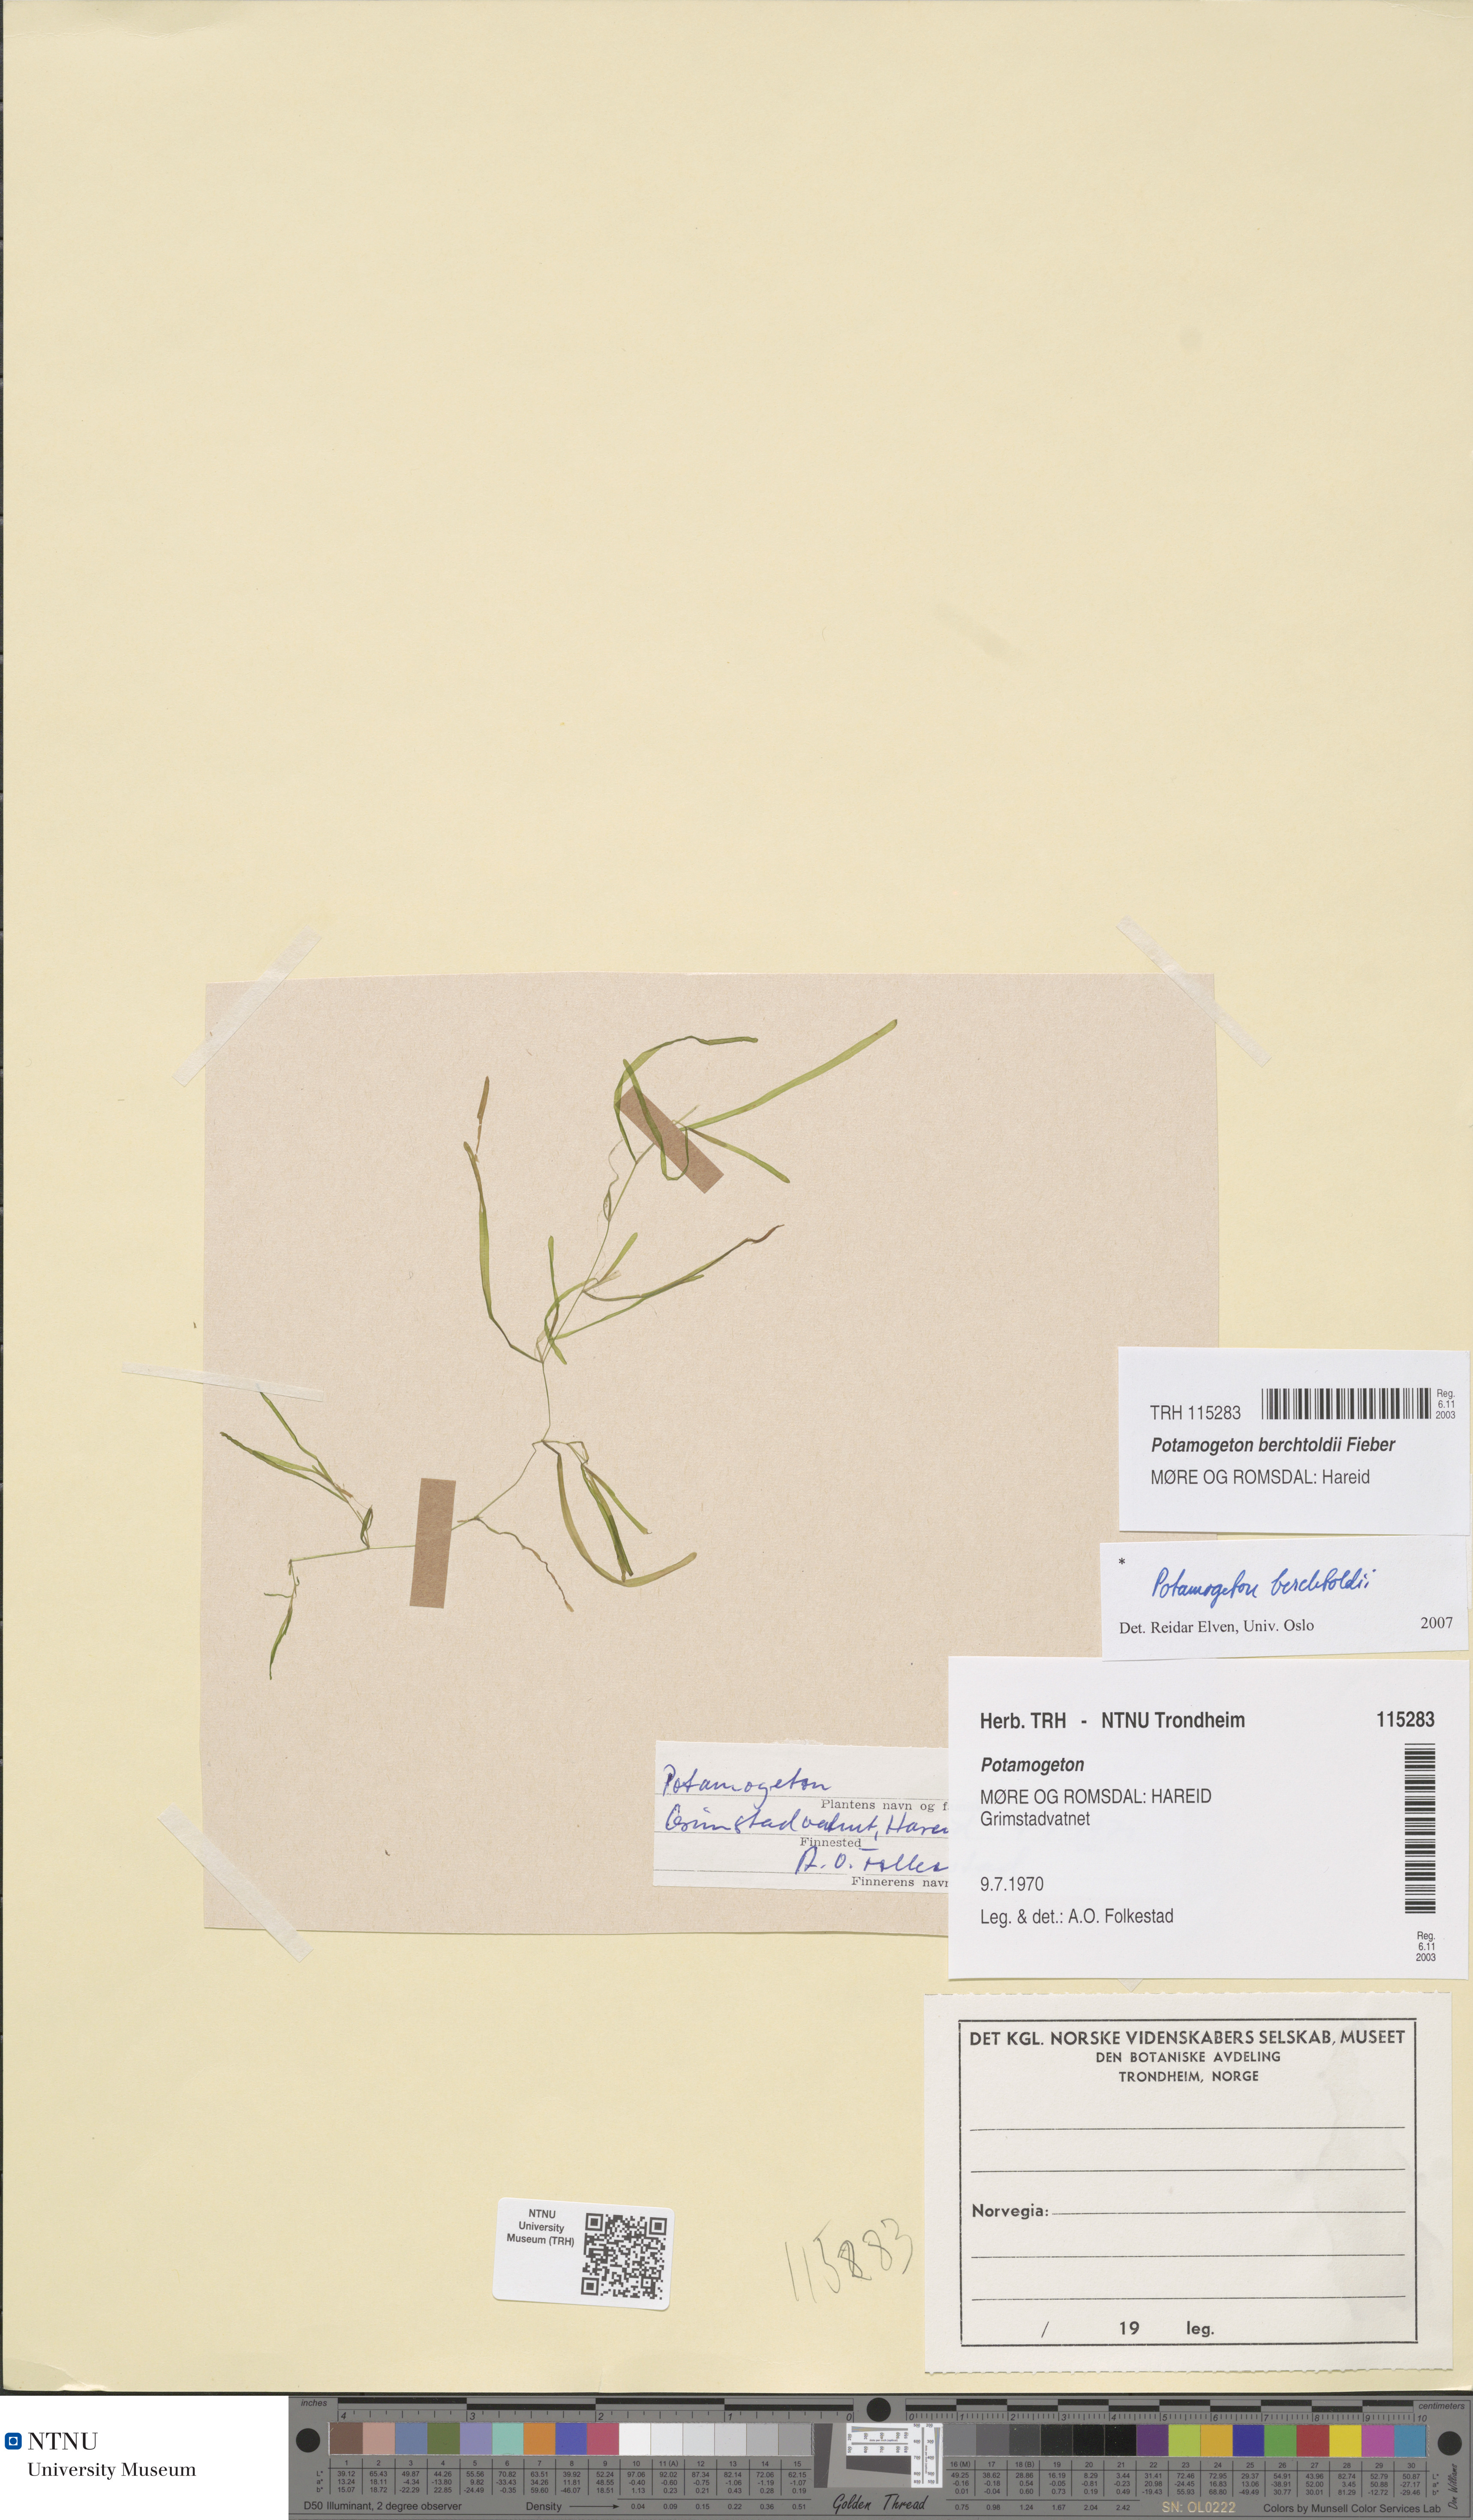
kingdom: Plantae
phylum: Tracheophyta
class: Liliopsida
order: Alismatales
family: Potamogetonaceae
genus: Potamogeton
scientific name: Potamogeton berchtoldii
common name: Small pondweed
